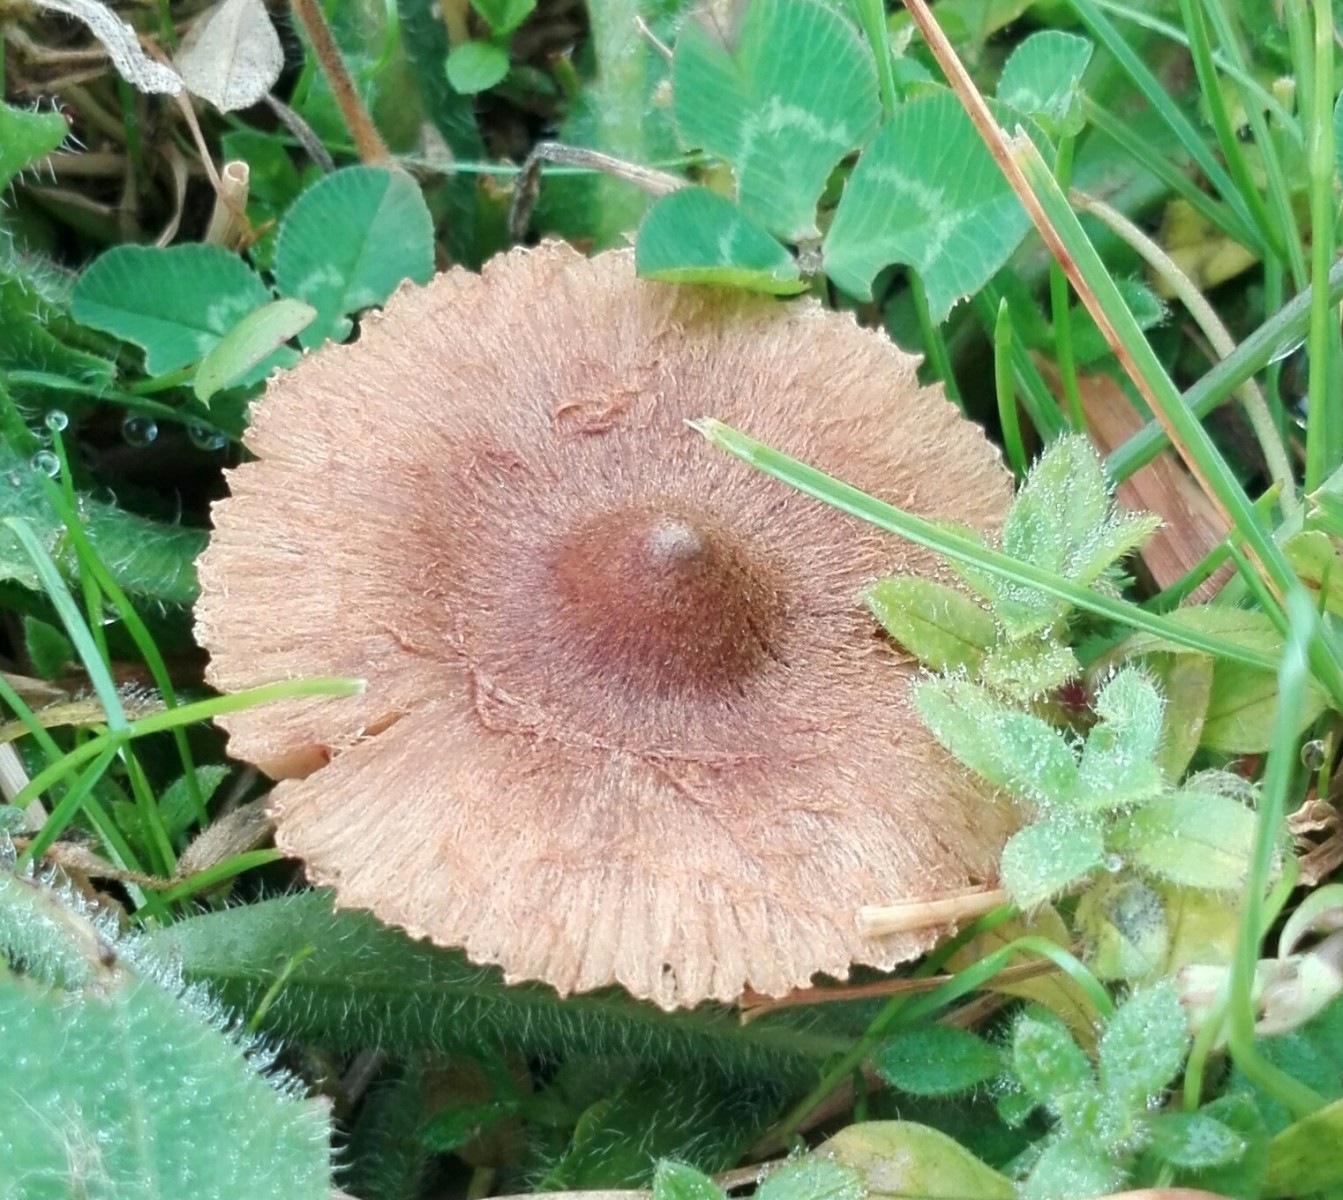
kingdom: Fungi
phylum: Basidiomycota
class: Agaricomycetes
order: Agaricales
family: Inocybaceae
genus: Inocybe
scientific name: Inocybe
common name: trævlhat
